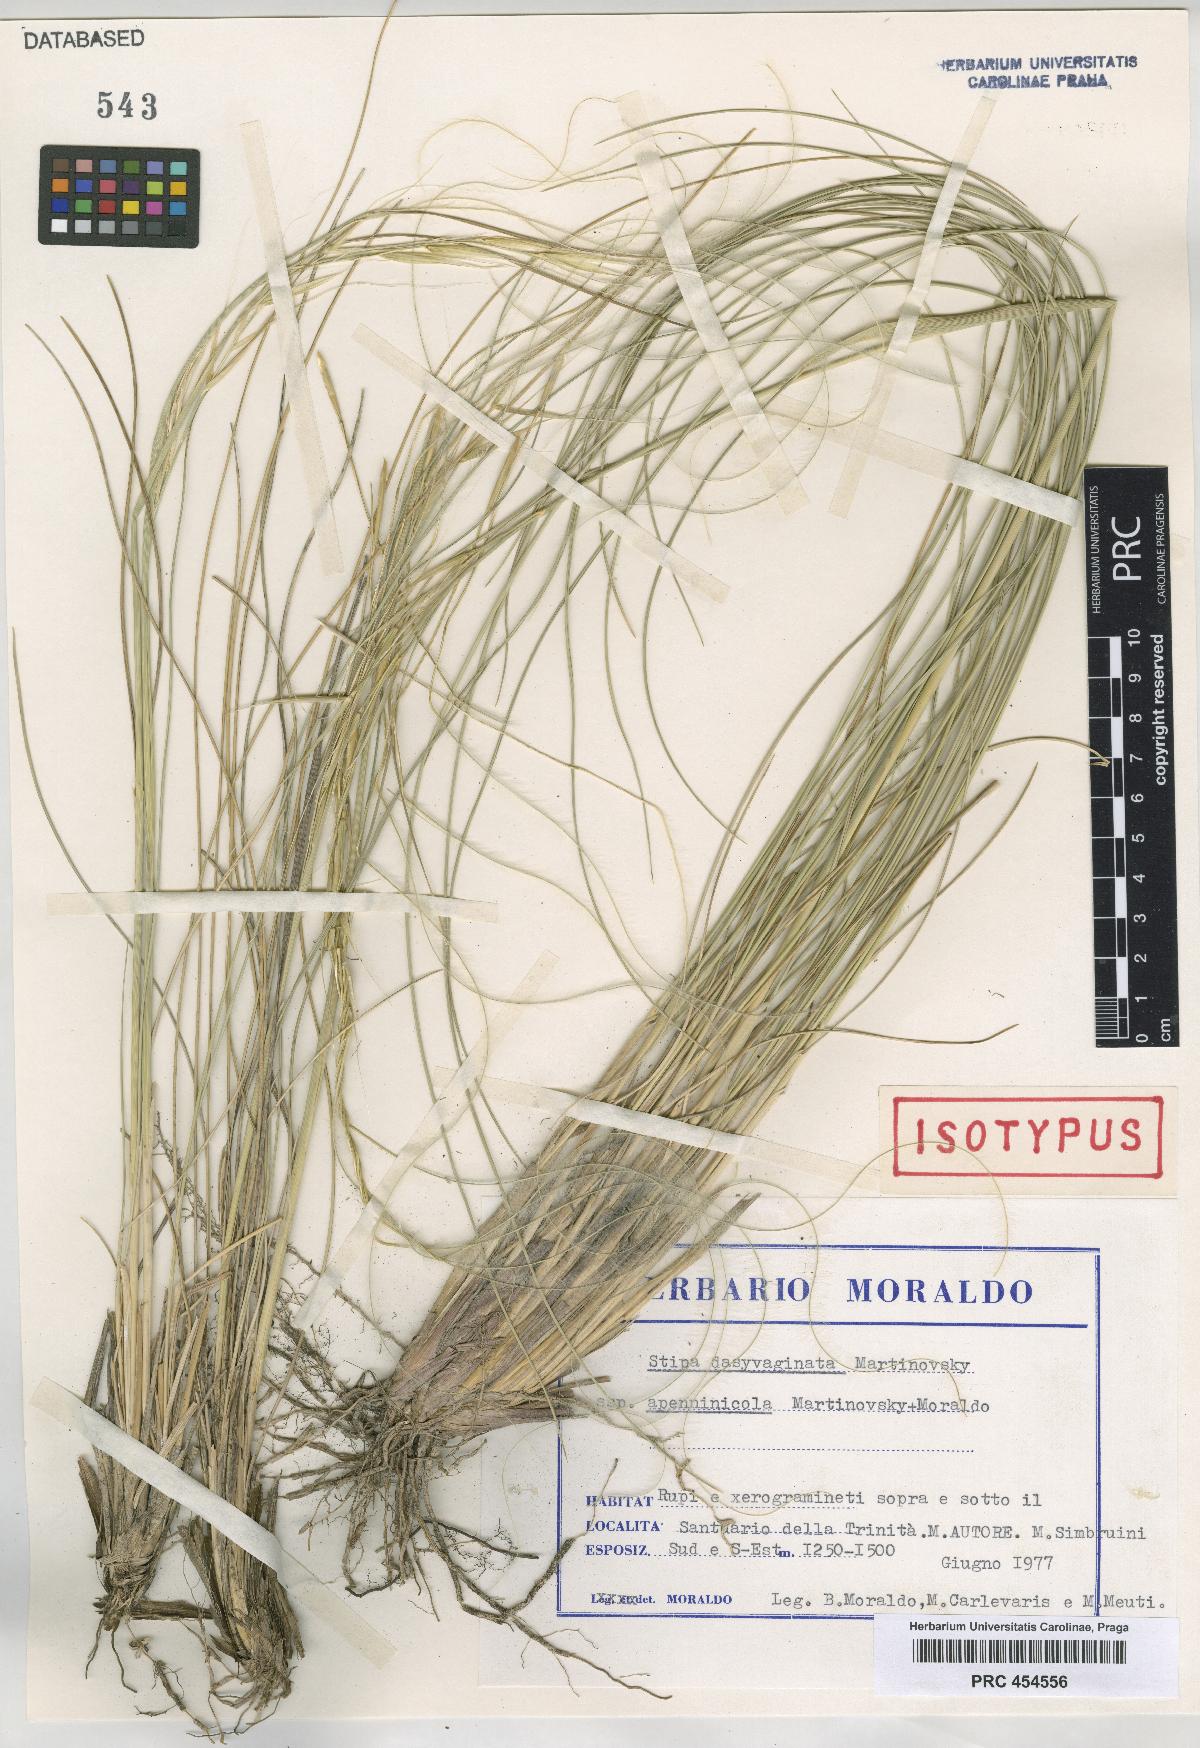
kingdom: Plantae
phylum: Tracheophyta
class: Liliopsida
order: Poales
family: Poaceae
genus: Stipa
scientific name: Stipa apertifolia
